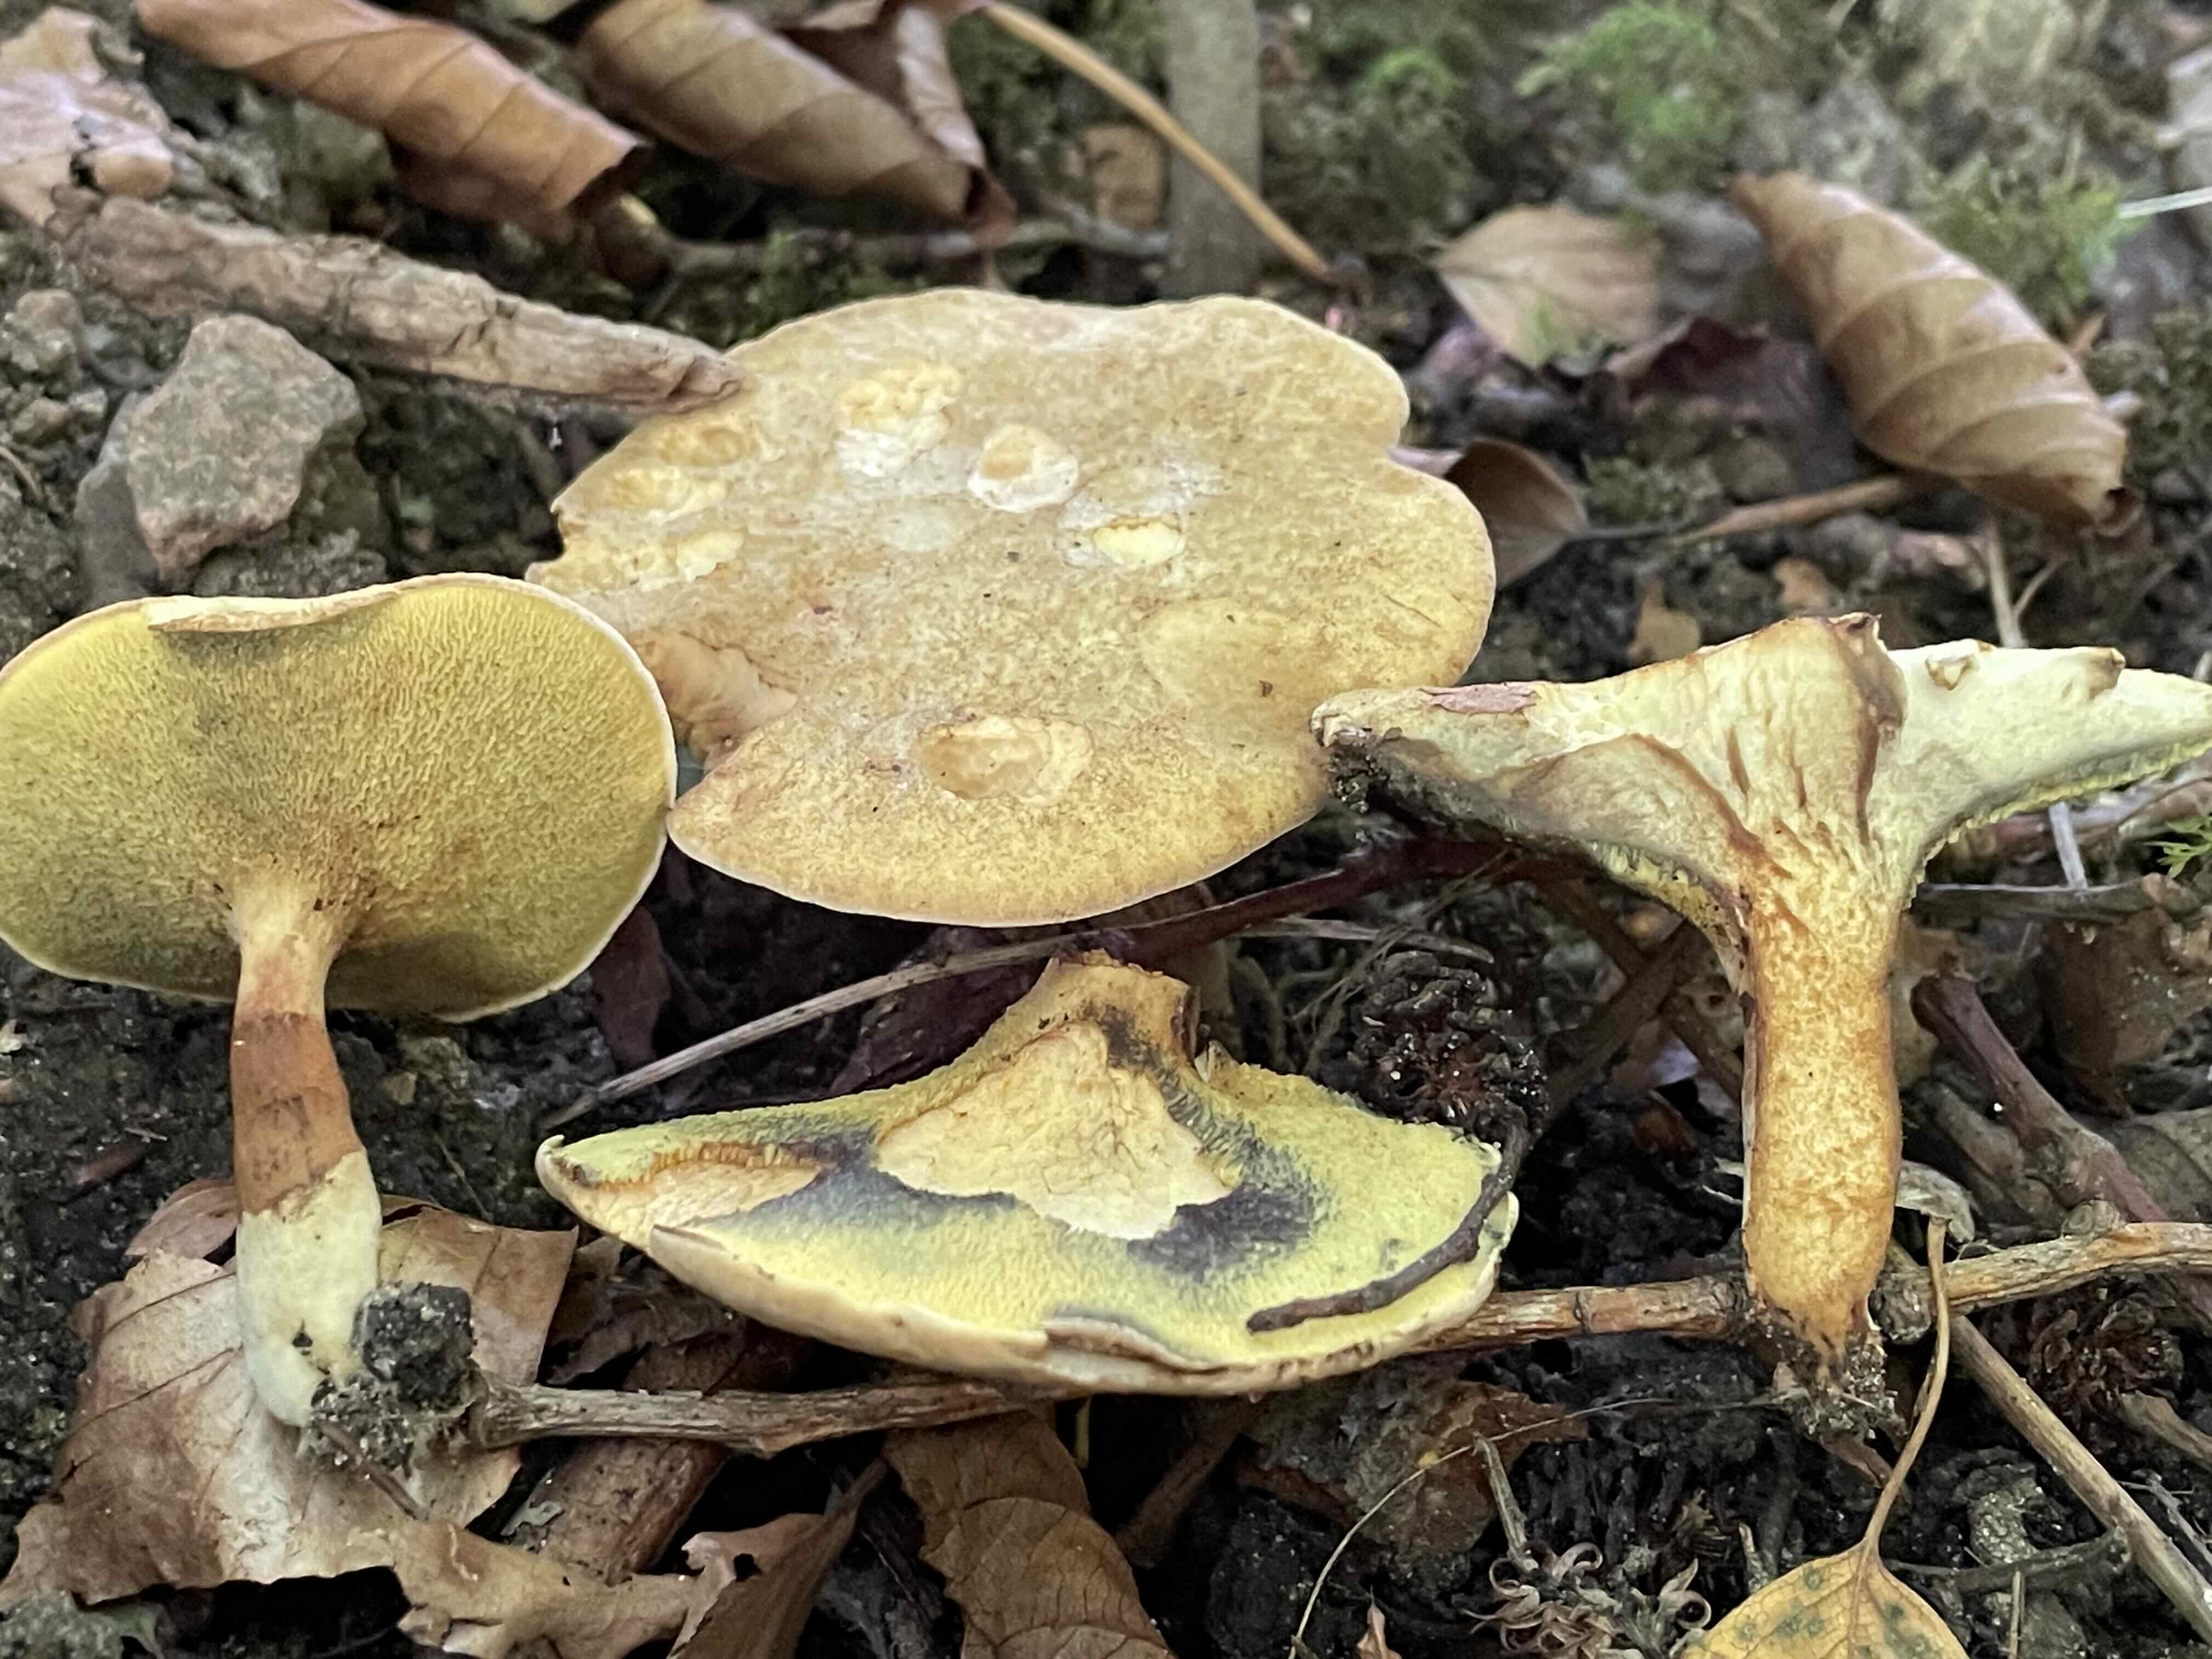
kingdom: Fungi
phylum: Basidiomycota
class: Agaricomycetes
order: Boletales
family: Paxillaceae
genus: Gyrodon
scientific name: Gyrodon lividus
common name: ellerørhat
